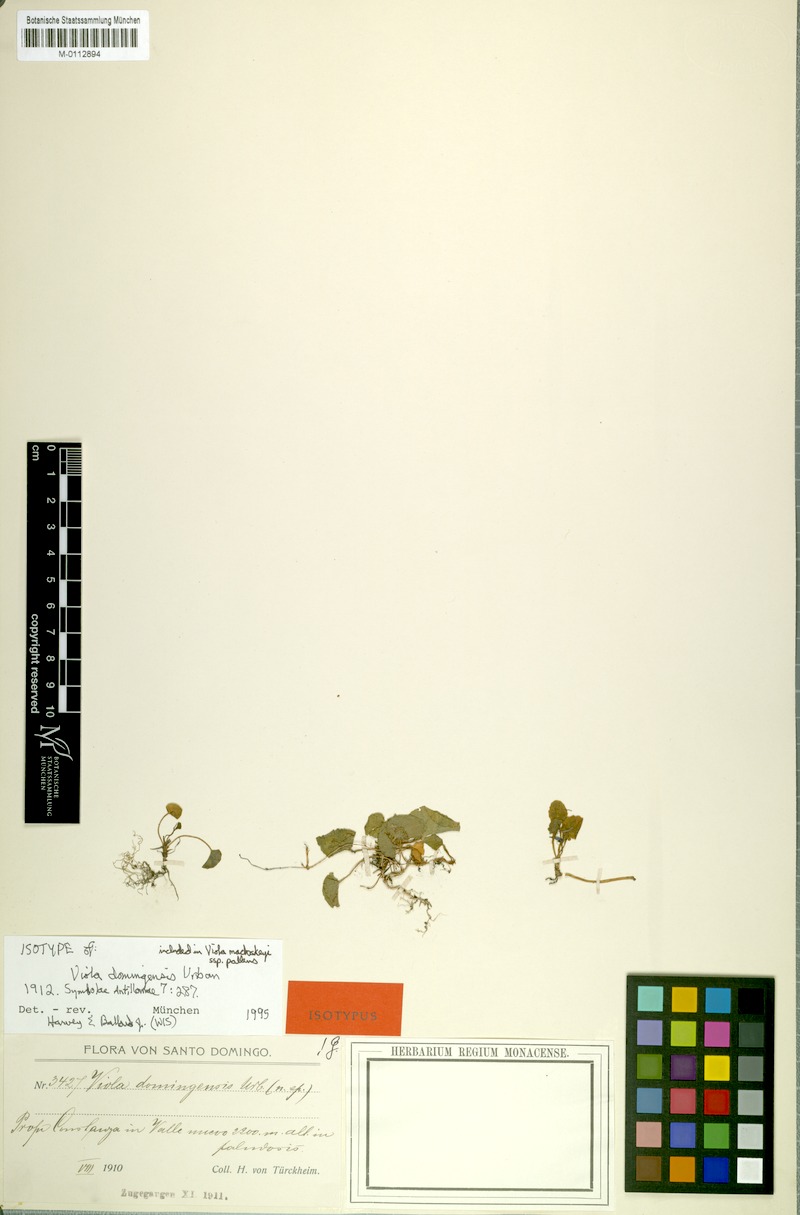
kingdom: Plantae
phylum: Tracheophyta
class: Magnoliopsida
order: Malpighiales
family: Violaceae
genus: Viola
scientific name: Viola domingensis
